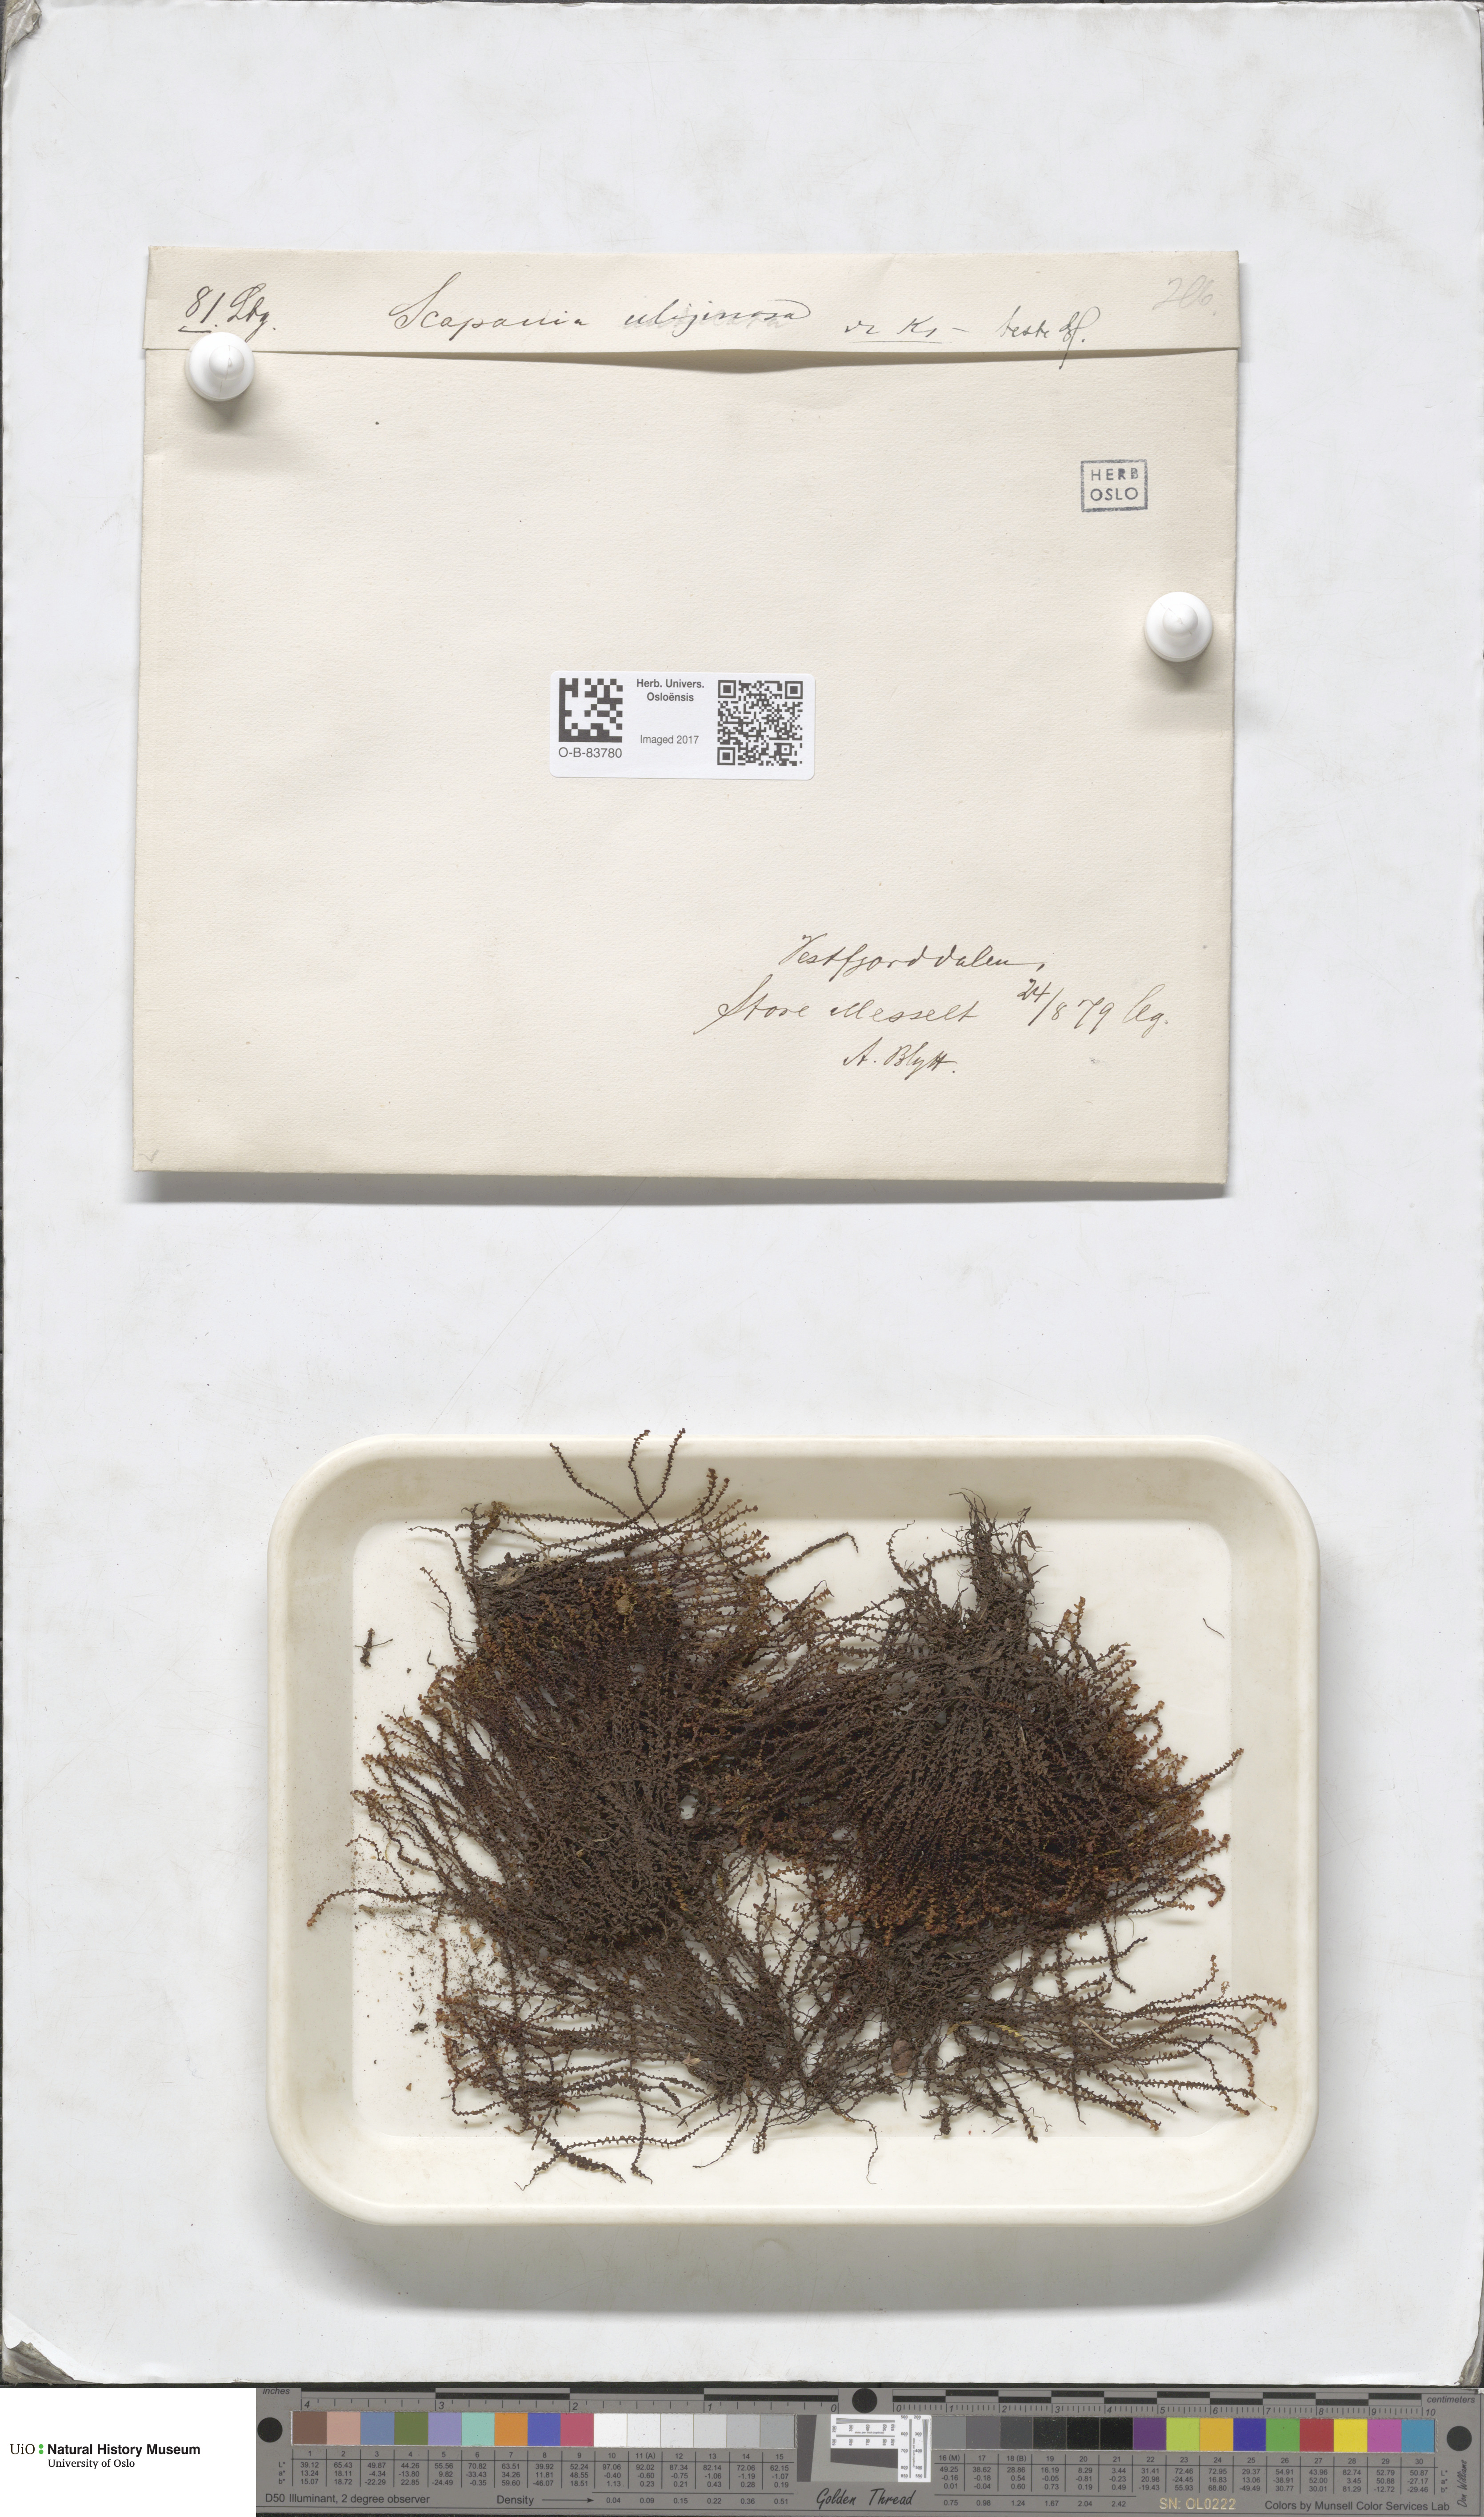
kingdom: Plantae
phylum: Marchantiophyta
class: Jungermanniopsida
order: Jungermanniales
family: Scapaniaceae
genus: Scapania
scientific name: Scapania uliginosa
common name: Marsh earwort
